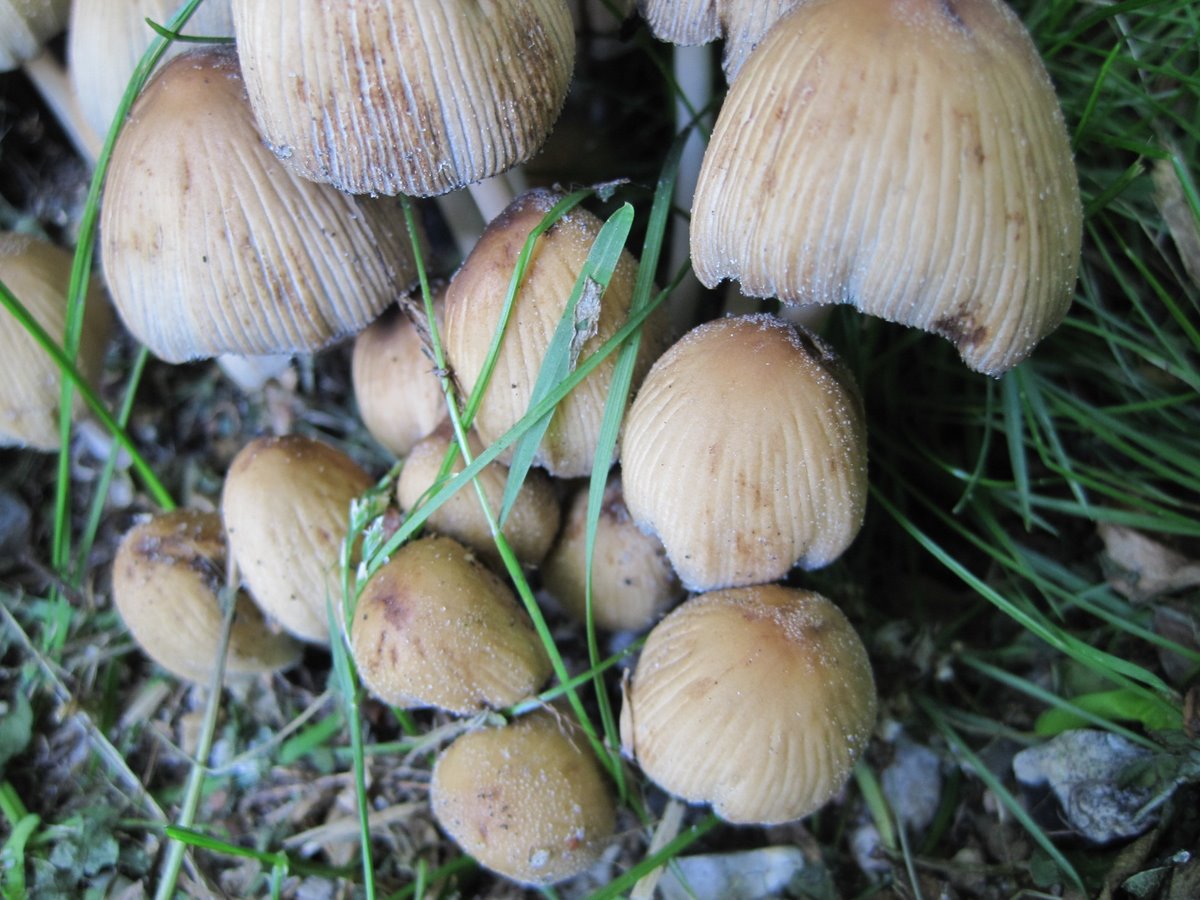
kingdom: Fungi
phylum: Basidiomycota
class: Agaricomycetes
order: Agaricales
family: Psathyrellaceae
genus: Coprinellus
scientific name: Coprinellus micaceus
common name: glimmer-blækhat
